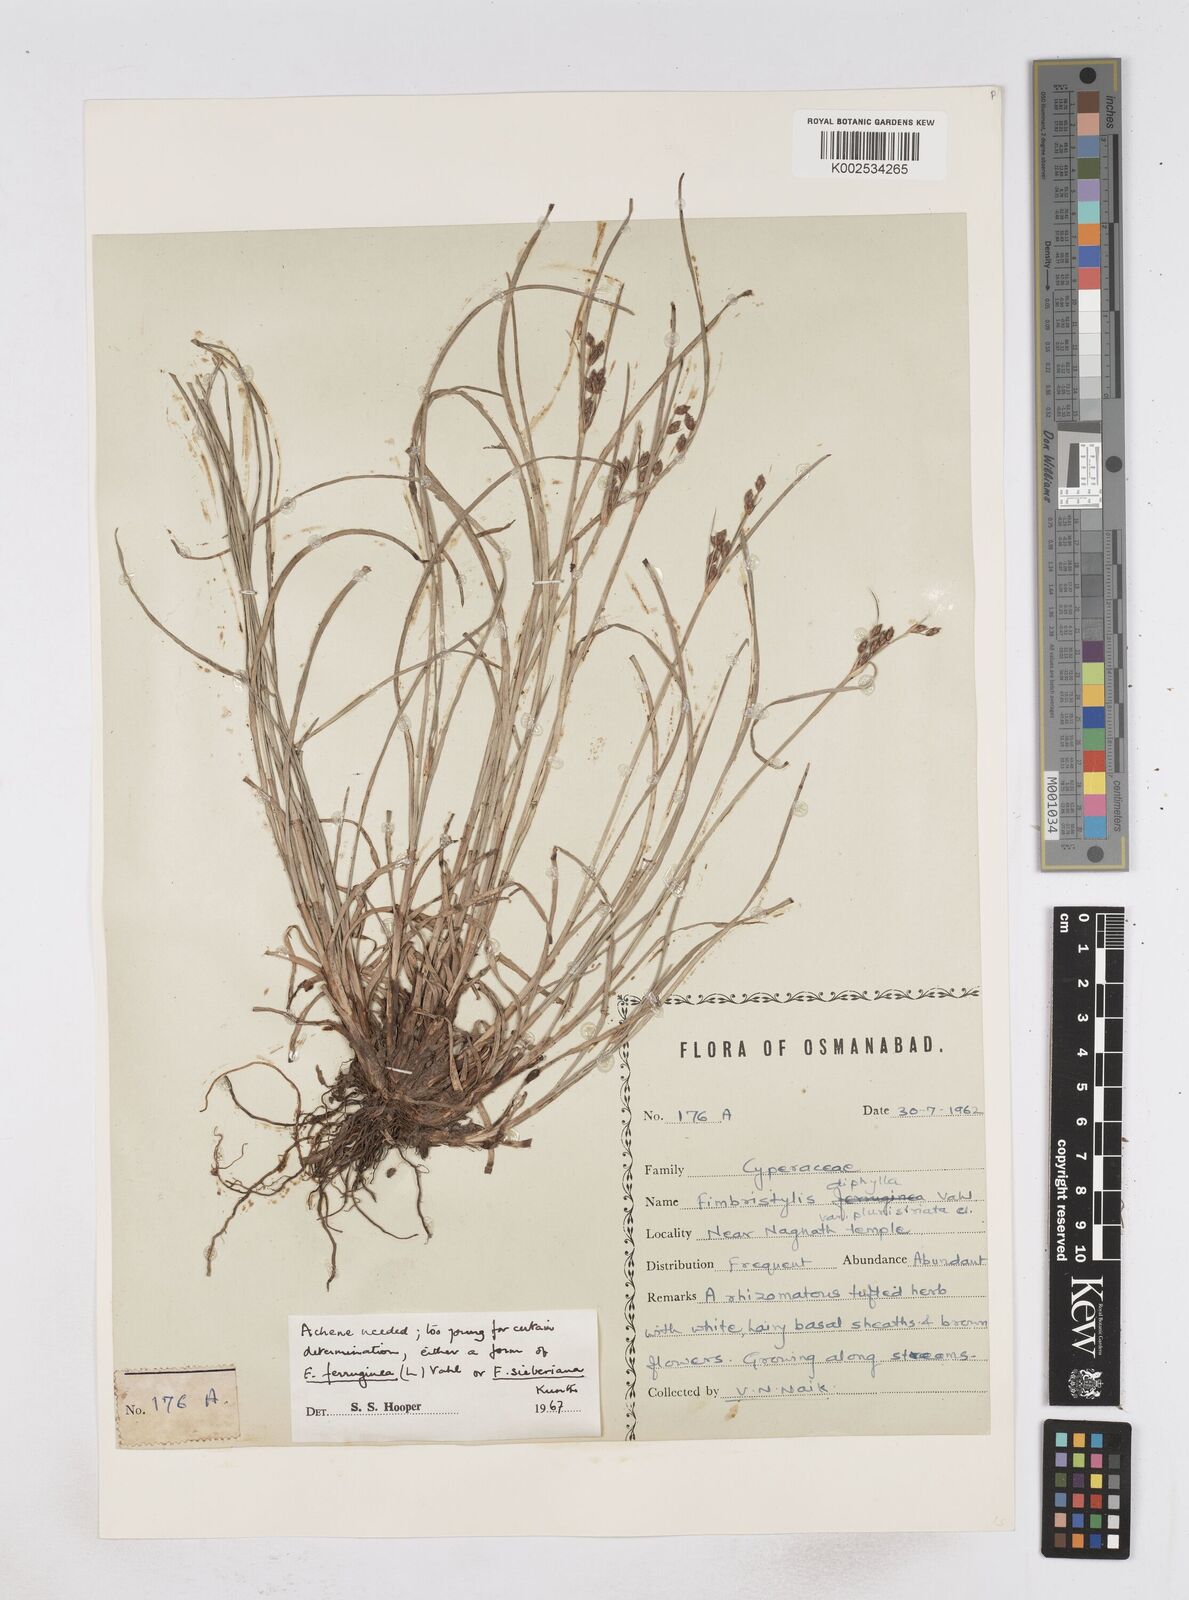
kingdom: Plantae
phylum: Tracheophyta
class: Liliopsida
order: Poales
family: Cyperaceae
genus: Fimbristylis
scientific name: Fimbristylis ferruginea
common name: West indian fimbry
